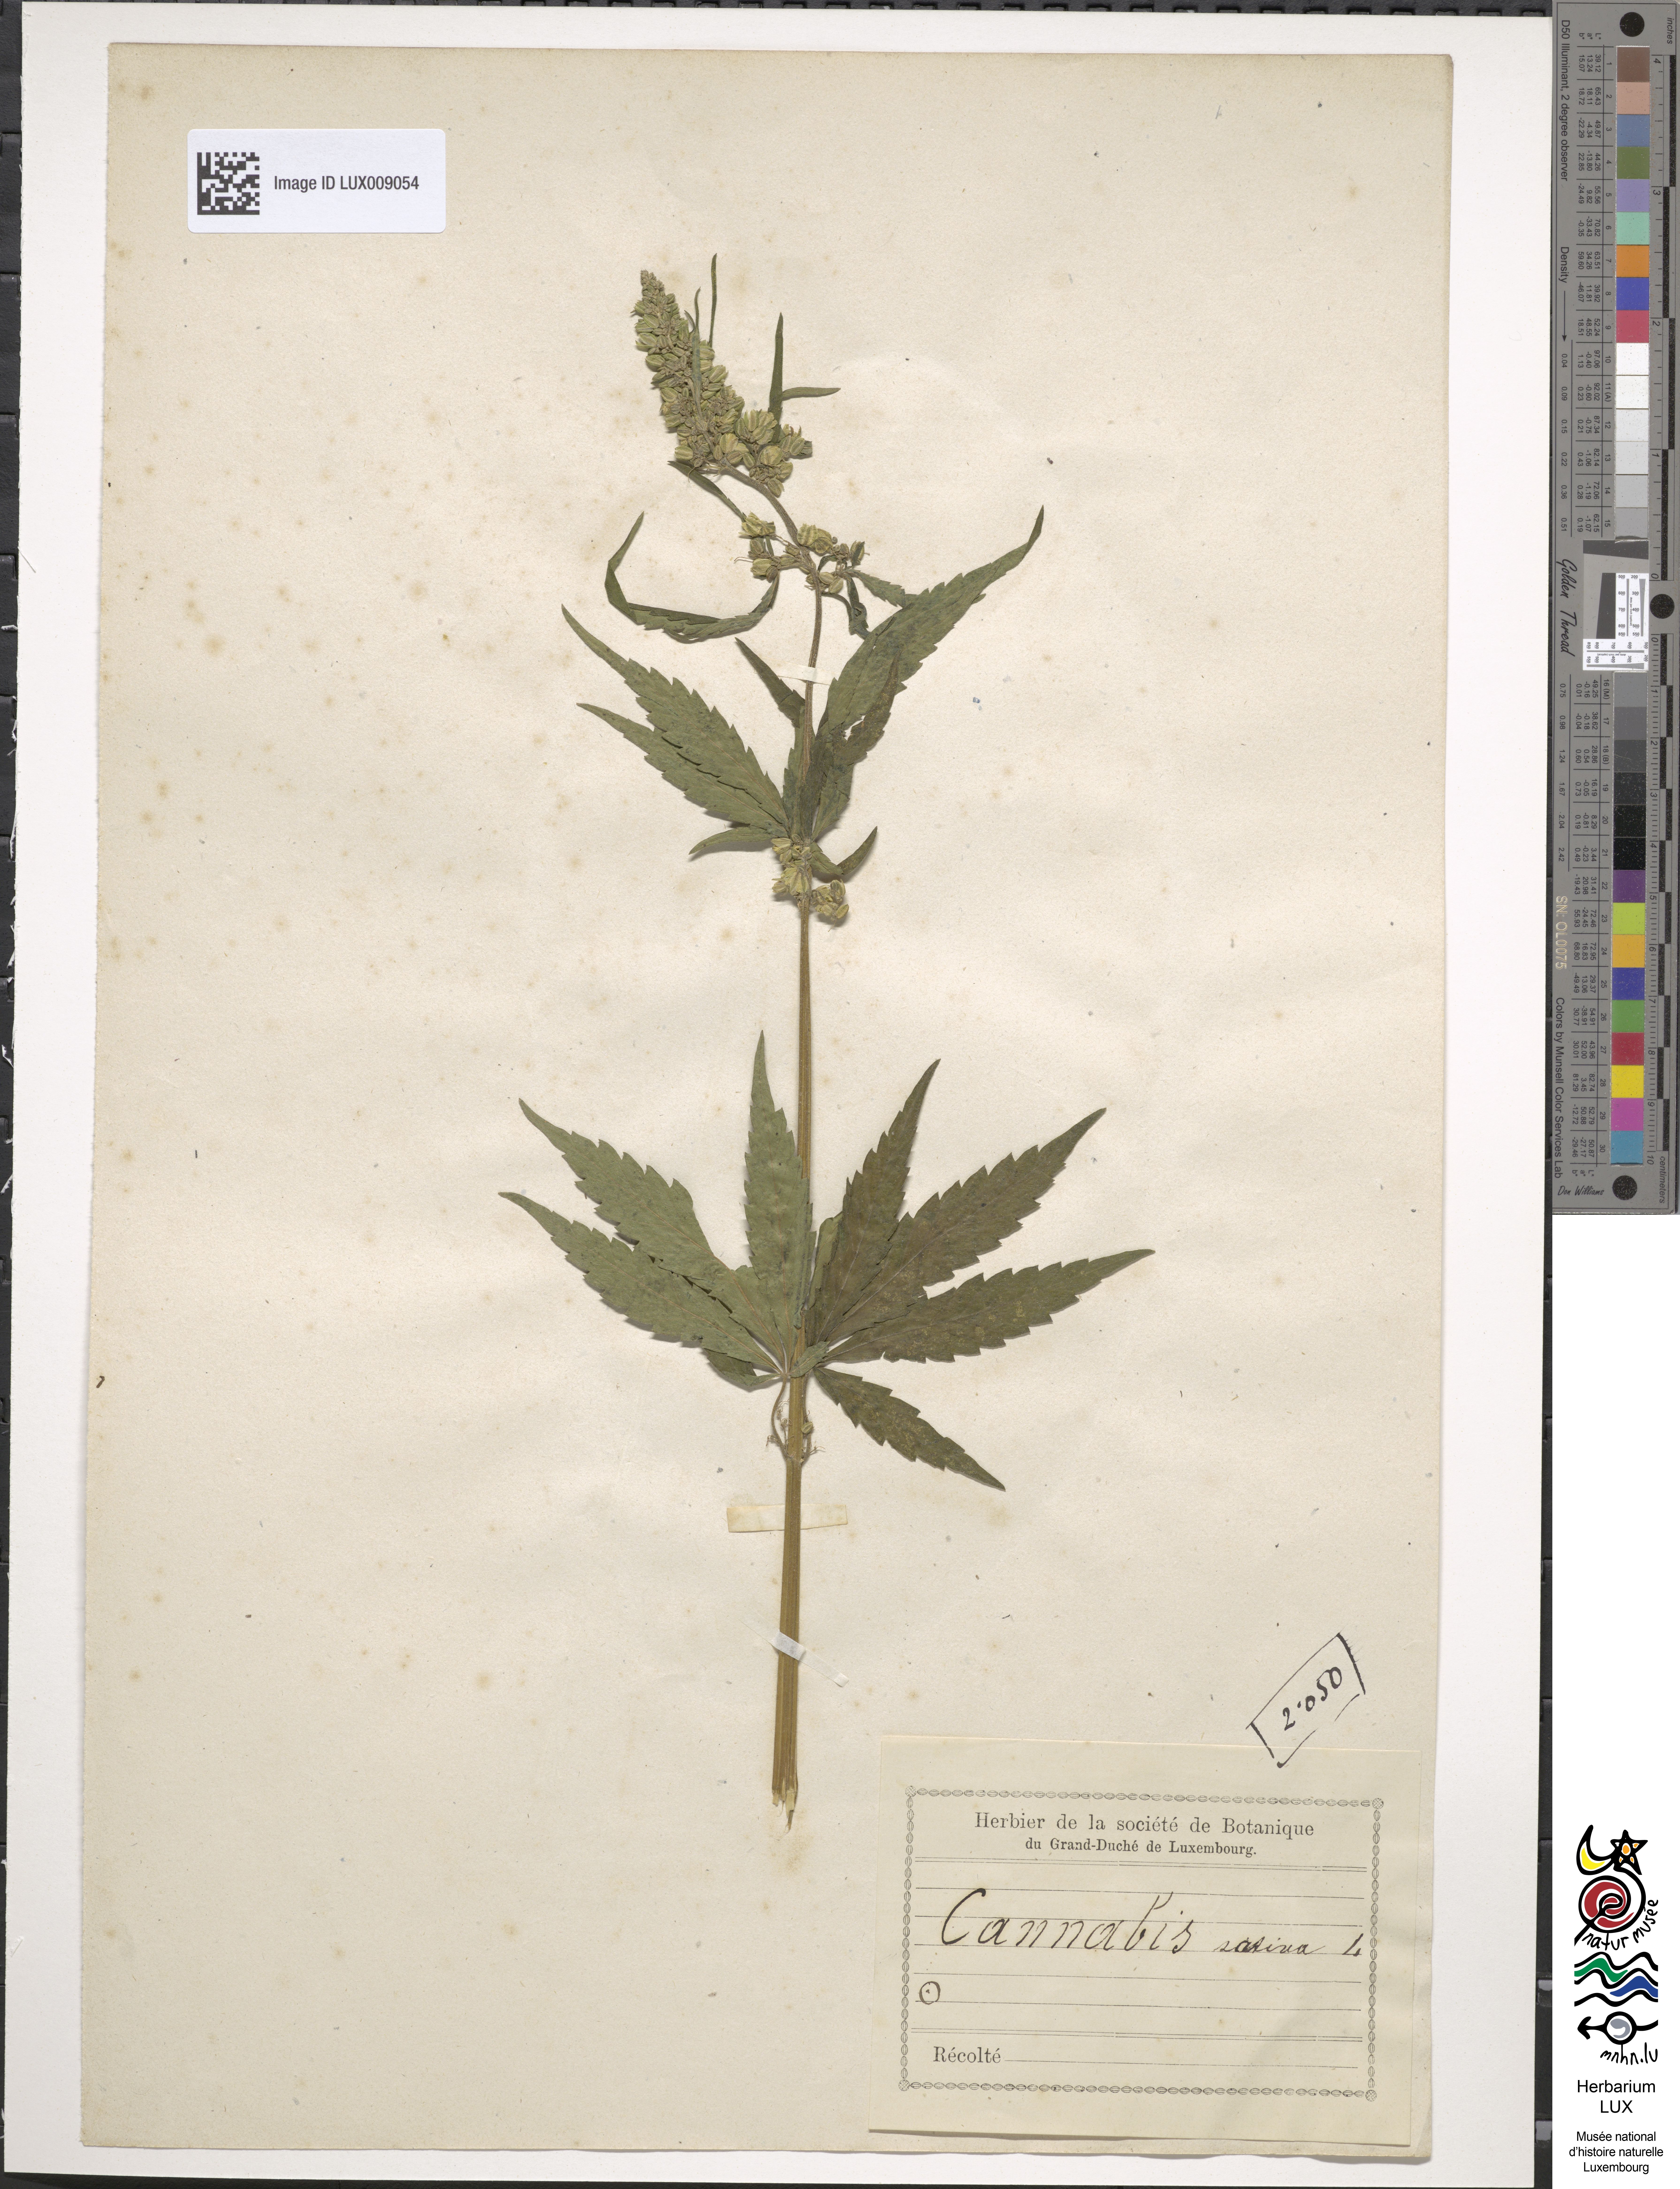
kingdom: Plantae
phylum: Tracheophyta
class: Magnoliopsida
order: Rosales
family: Cannabaceae
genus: Cannabis
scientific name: Cannabis sativa
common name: Hemp
